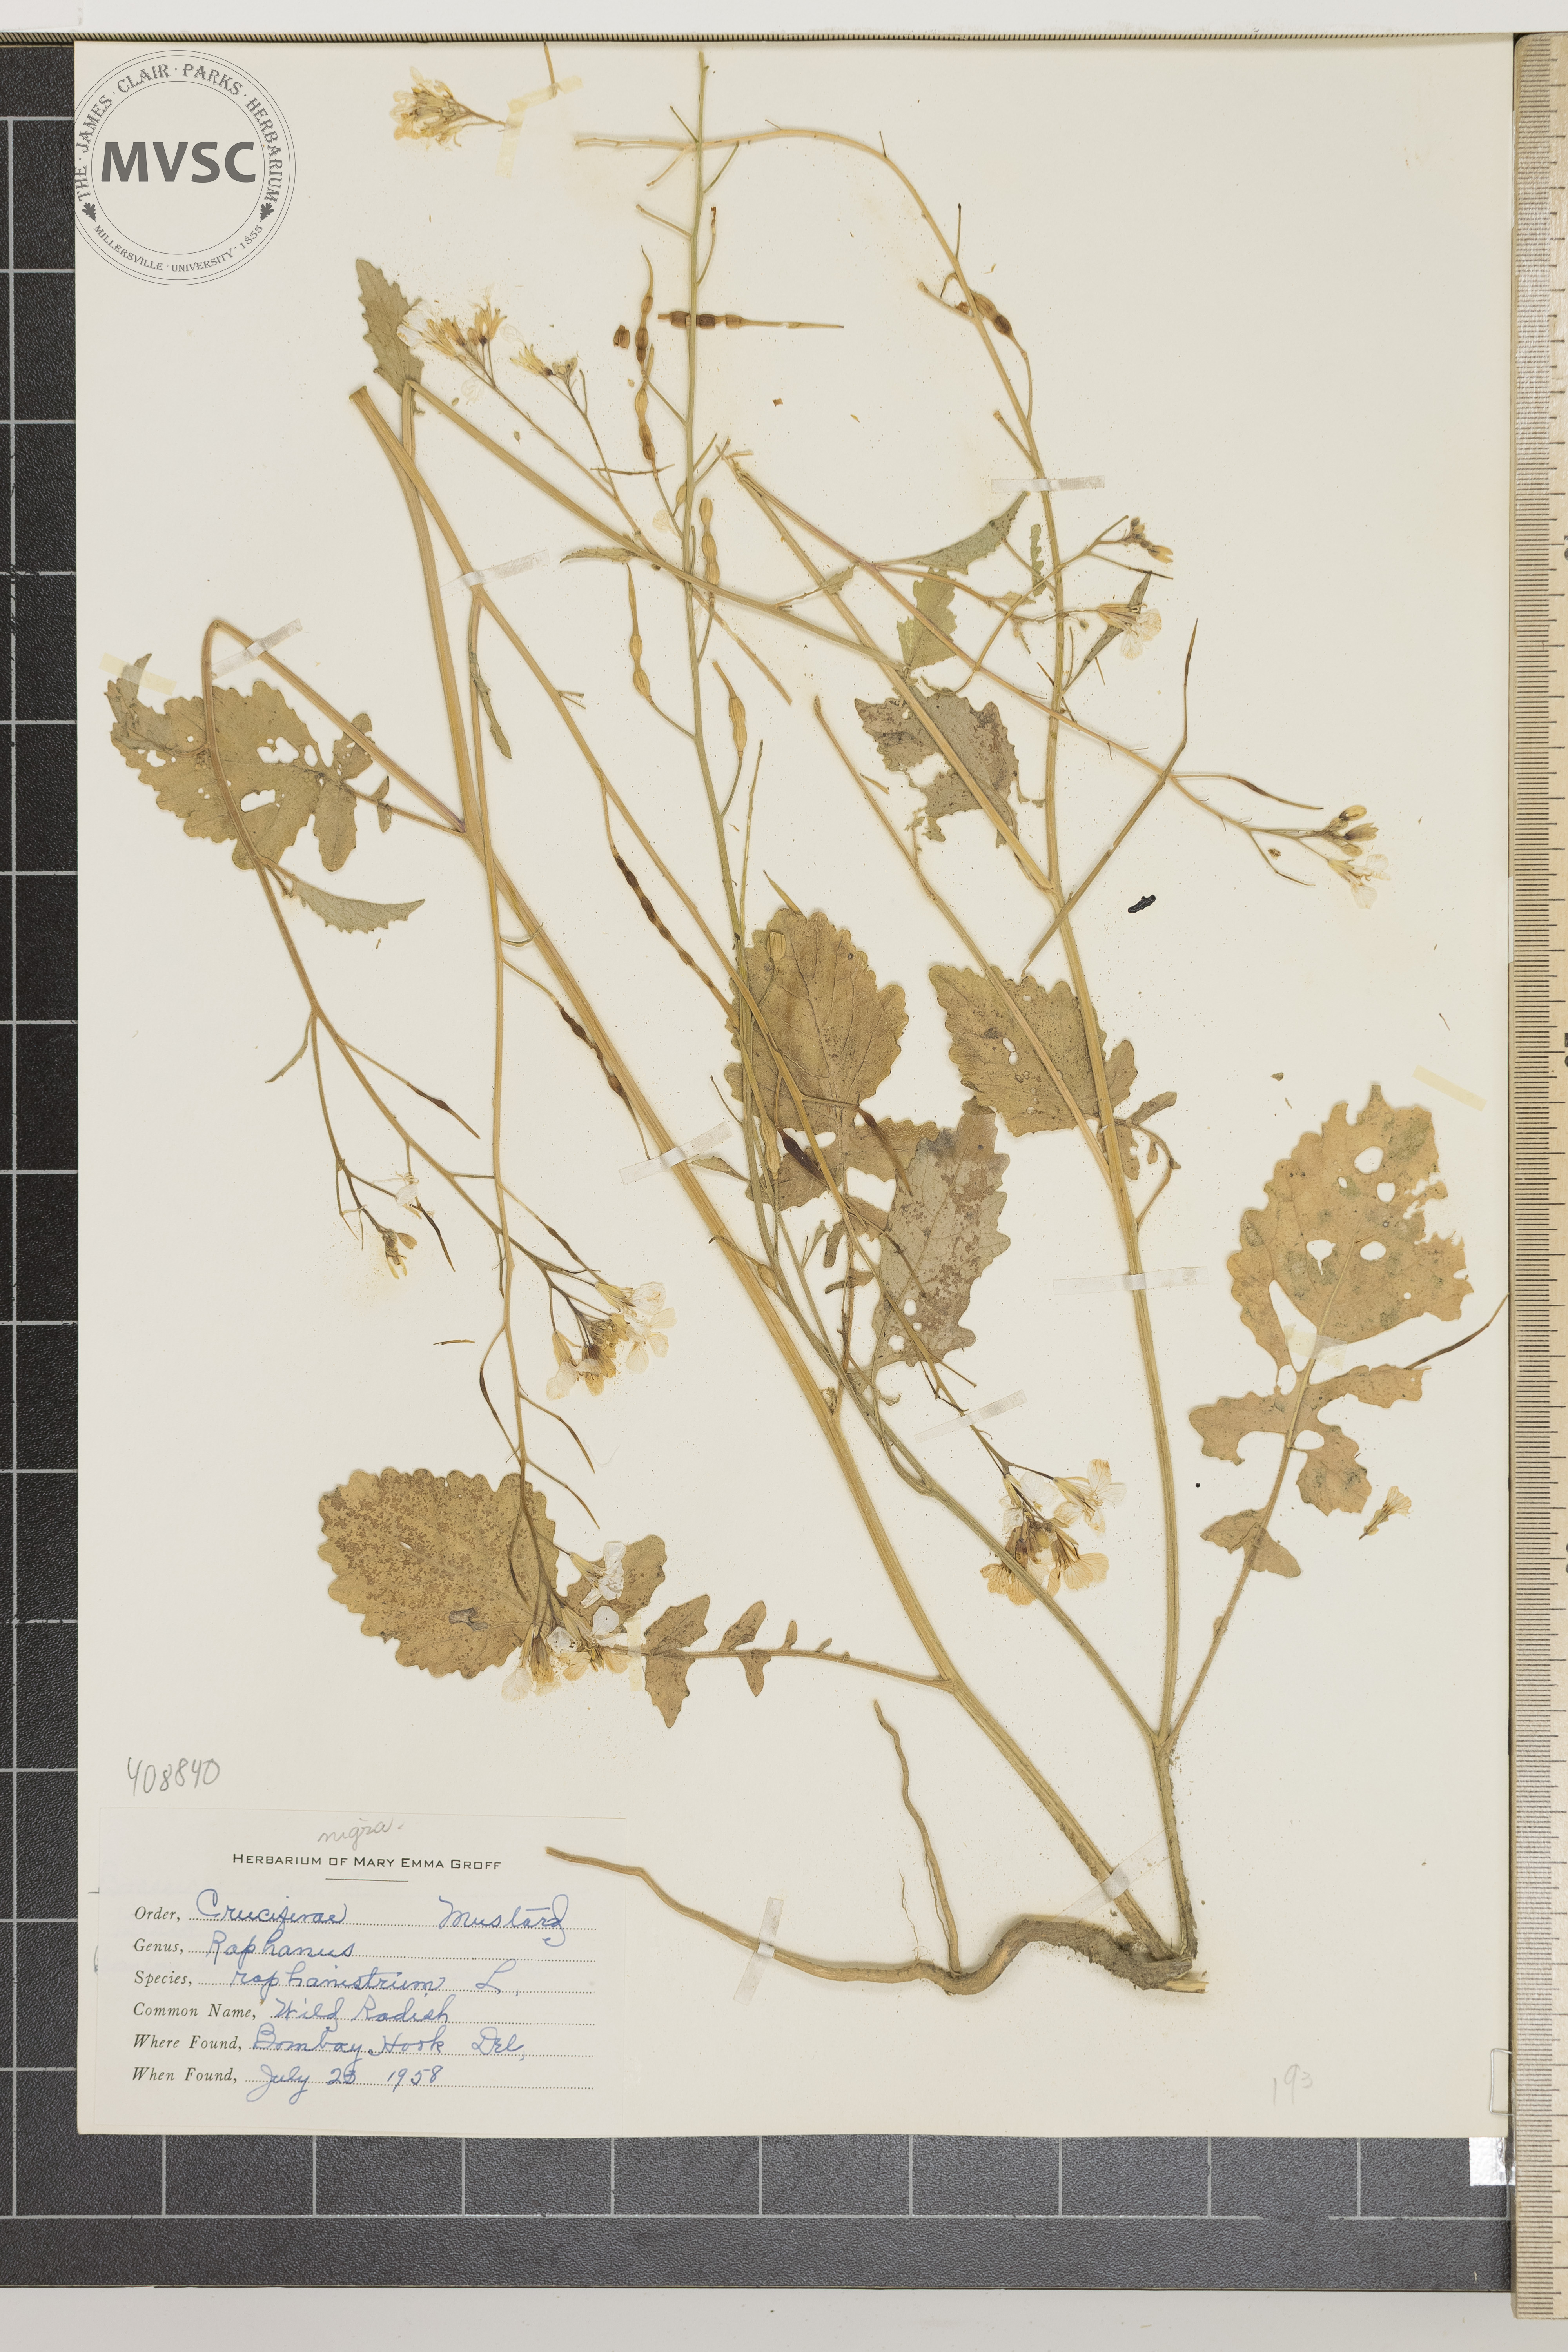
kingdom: Plantae
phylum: Tracheophyta
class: Magnoliopsida
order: Brassicales
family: Brassicaceae
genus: Raphanus
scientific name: Raphanus raphanistrum
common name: Wild Radish
